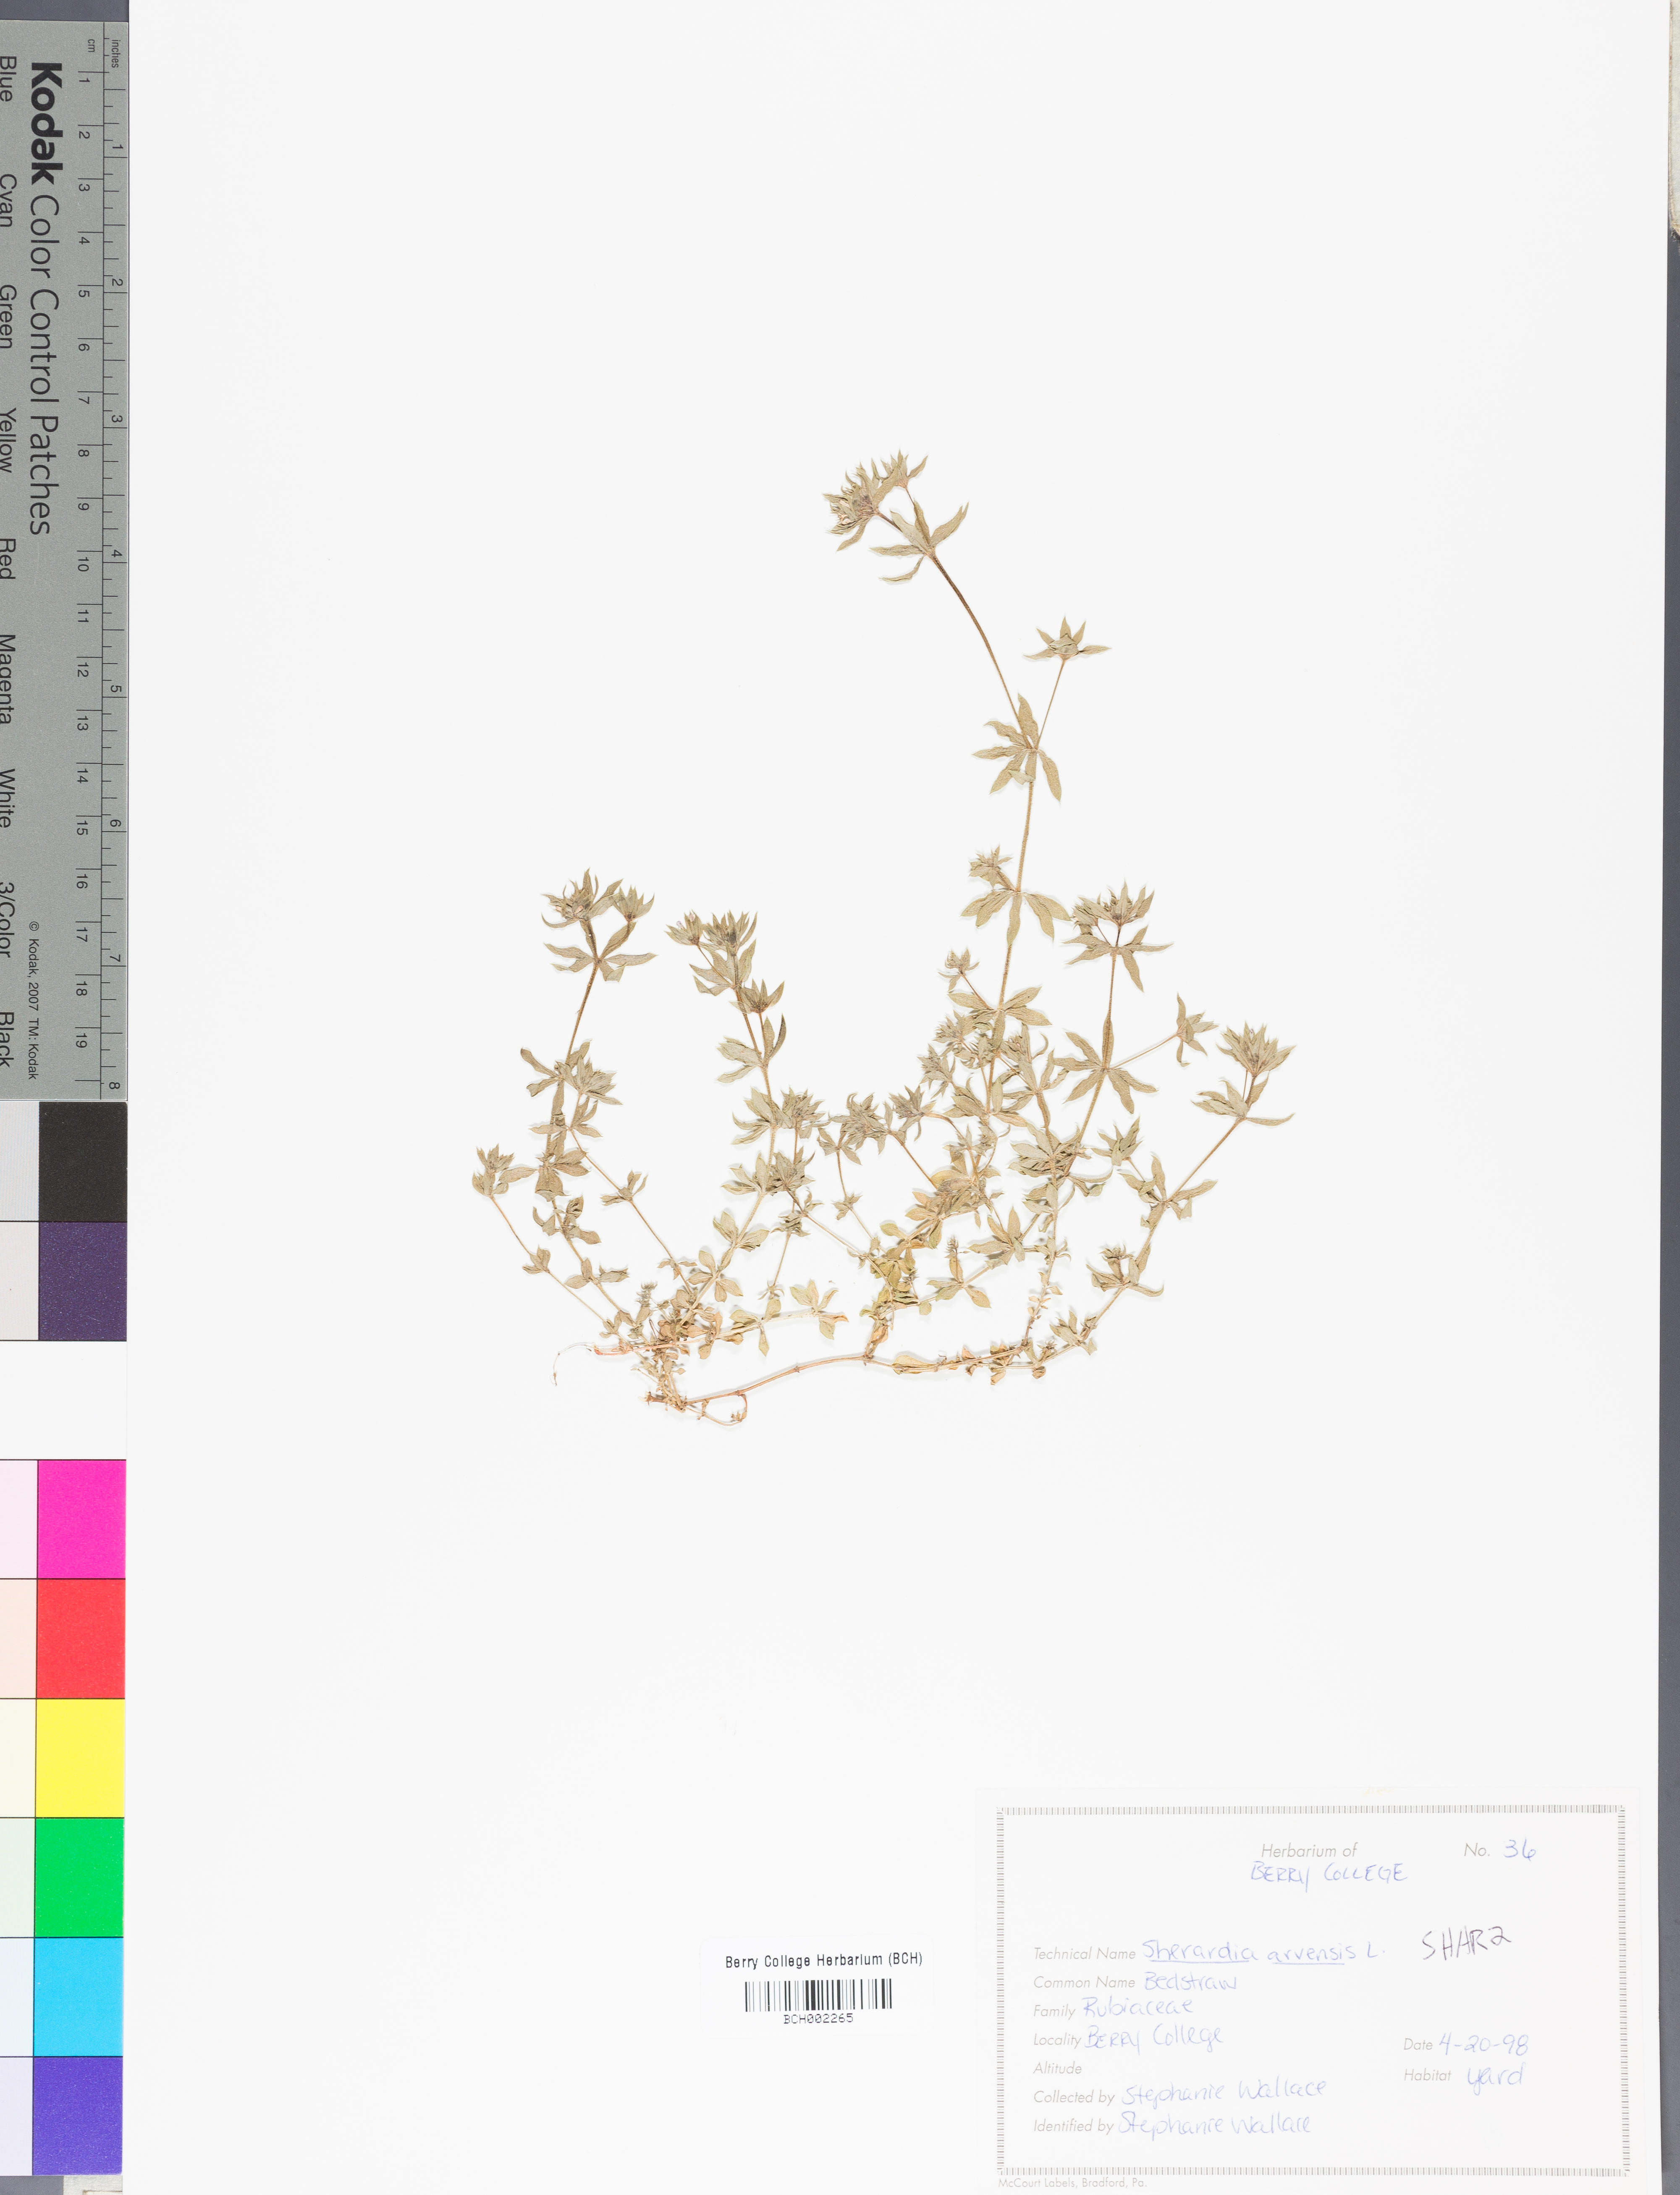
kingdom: Plantae
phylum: Tracheophyta
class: Magnoliopsida
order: Gentianales
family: Rubiaceae
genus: Sherardia
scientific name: Sherardia arvensis
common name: Field madder
